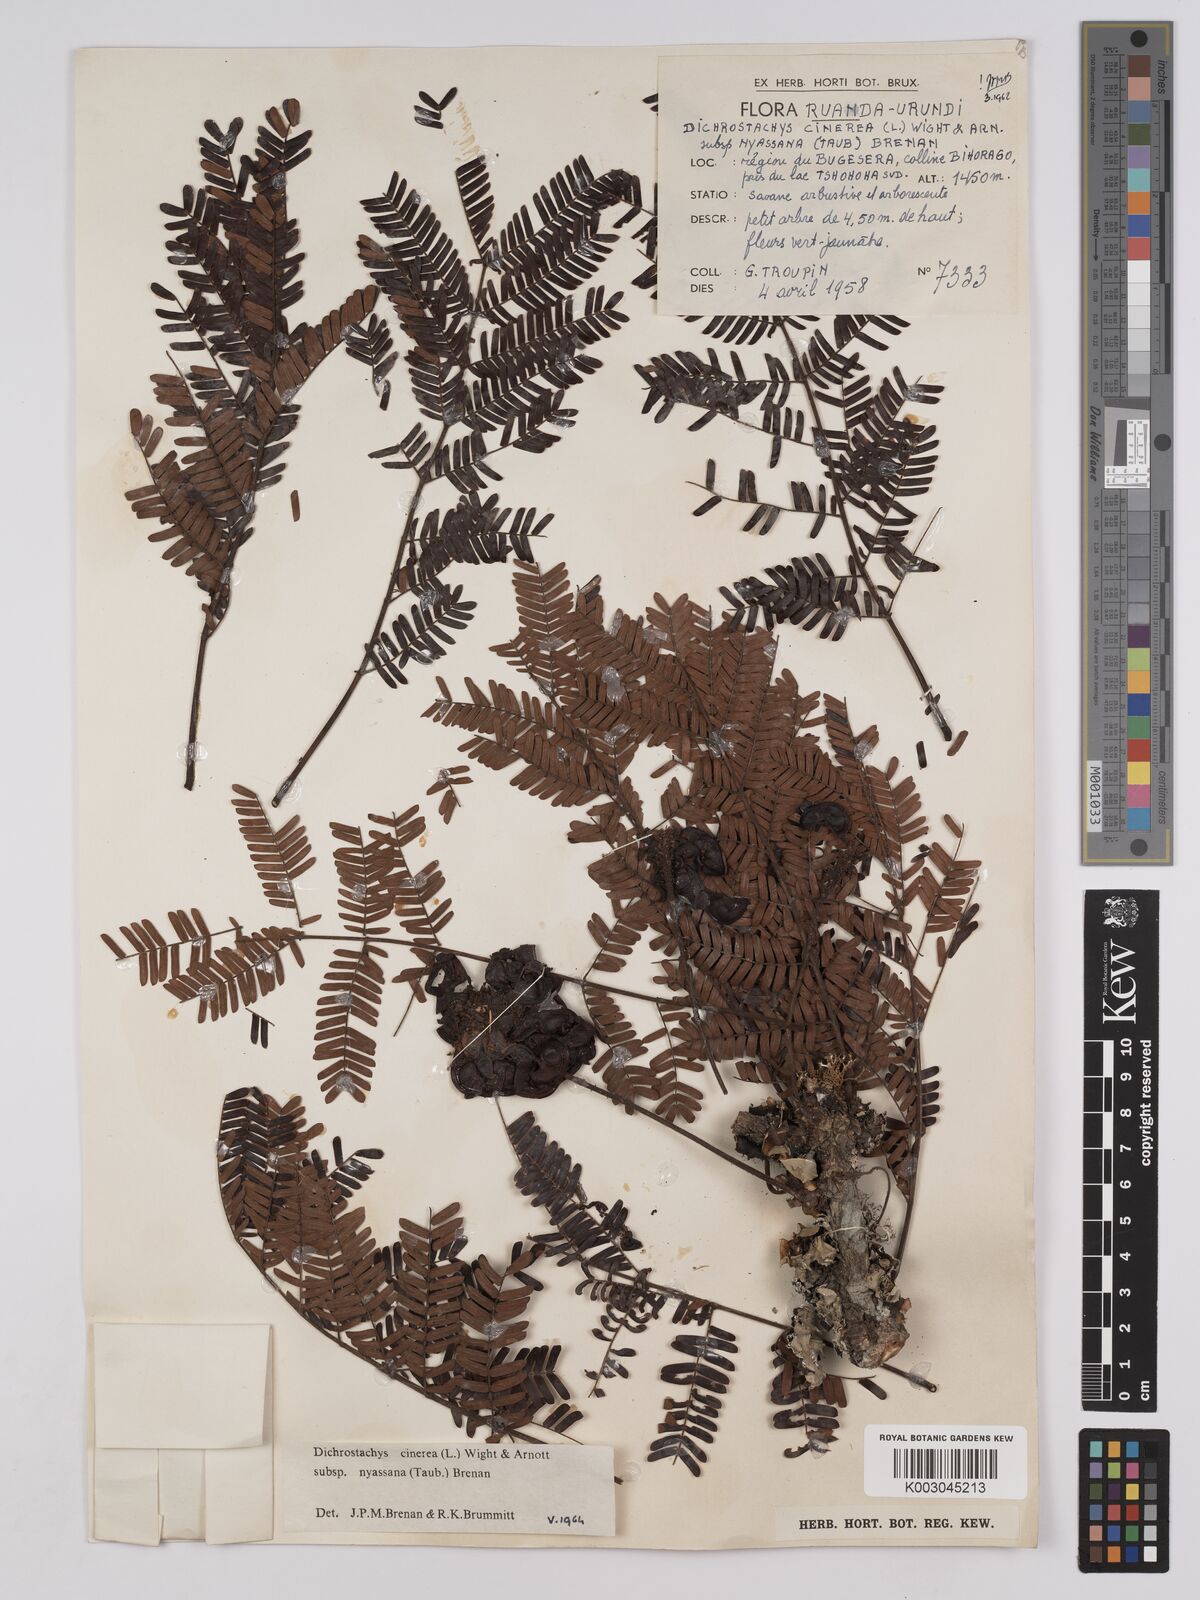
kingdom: Plantae
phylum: Tracheophyta
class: Magnoliopsida
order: Fabales
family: Fabaceae
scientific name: Fabaceae
